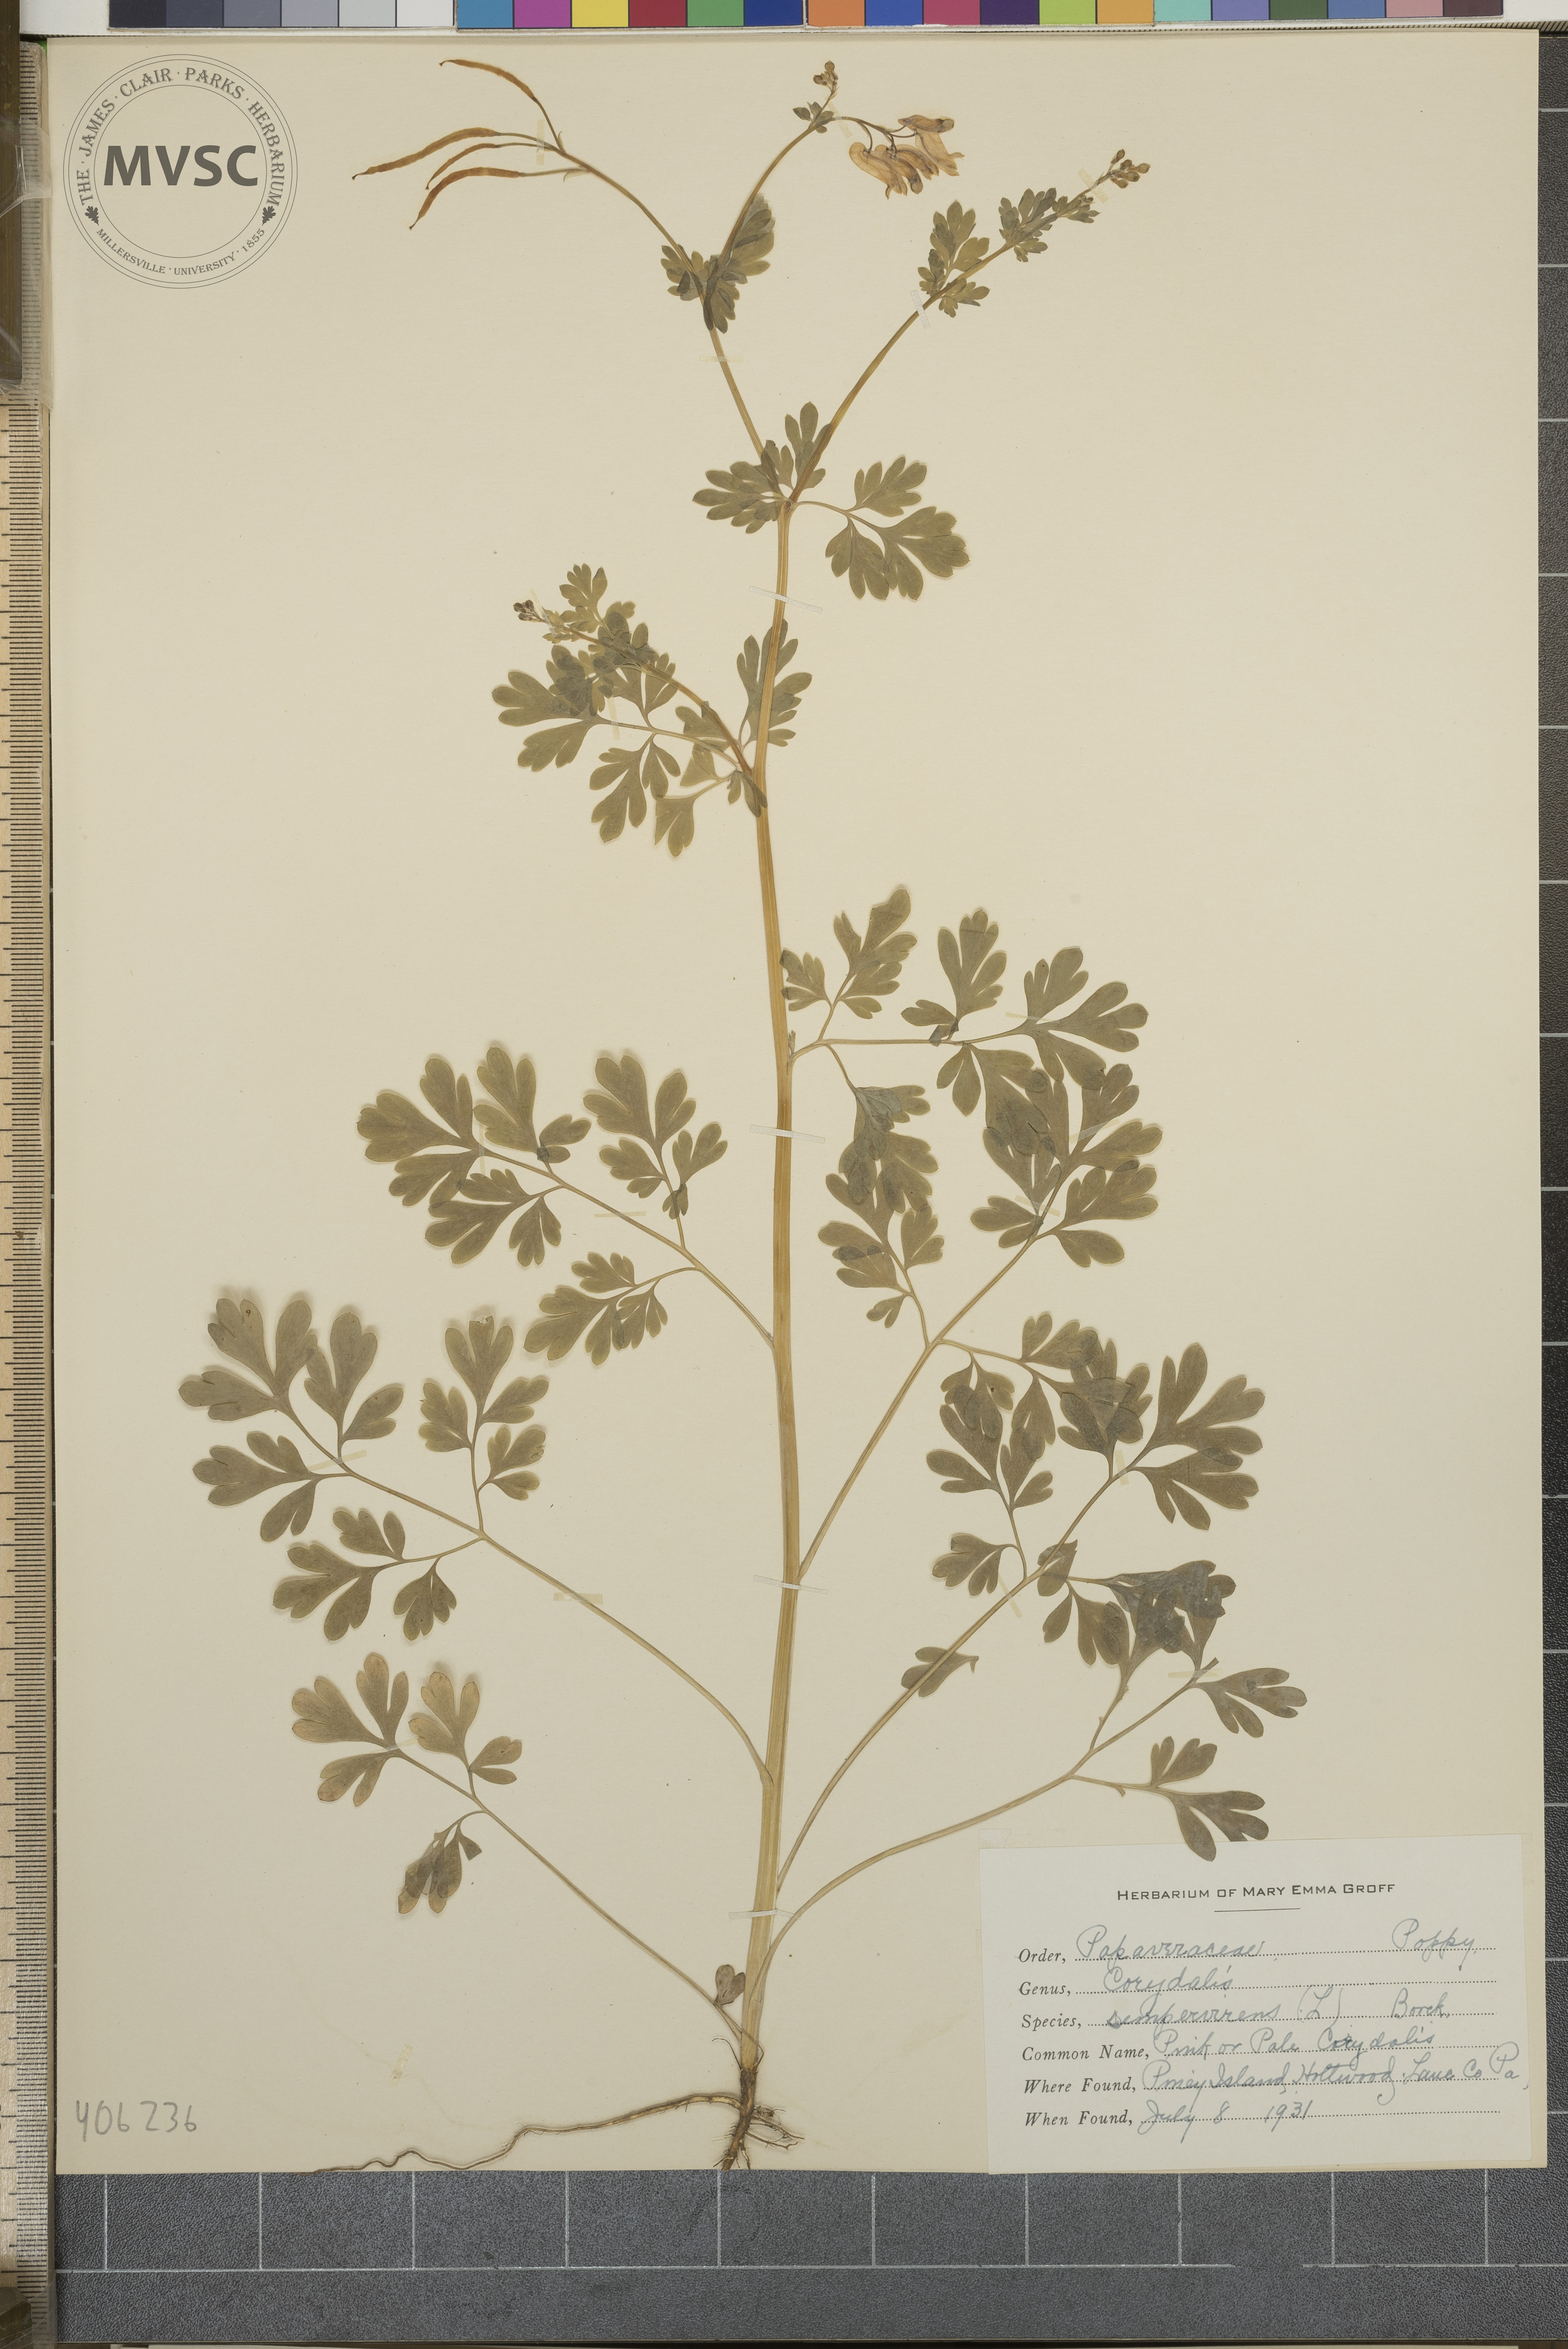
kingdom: Plantae
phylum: Tracheophyta
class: Magnoliopsida
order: Ranunculales
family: Papaveraceae
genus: Capnoides
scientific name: Capnoides sempervirens
